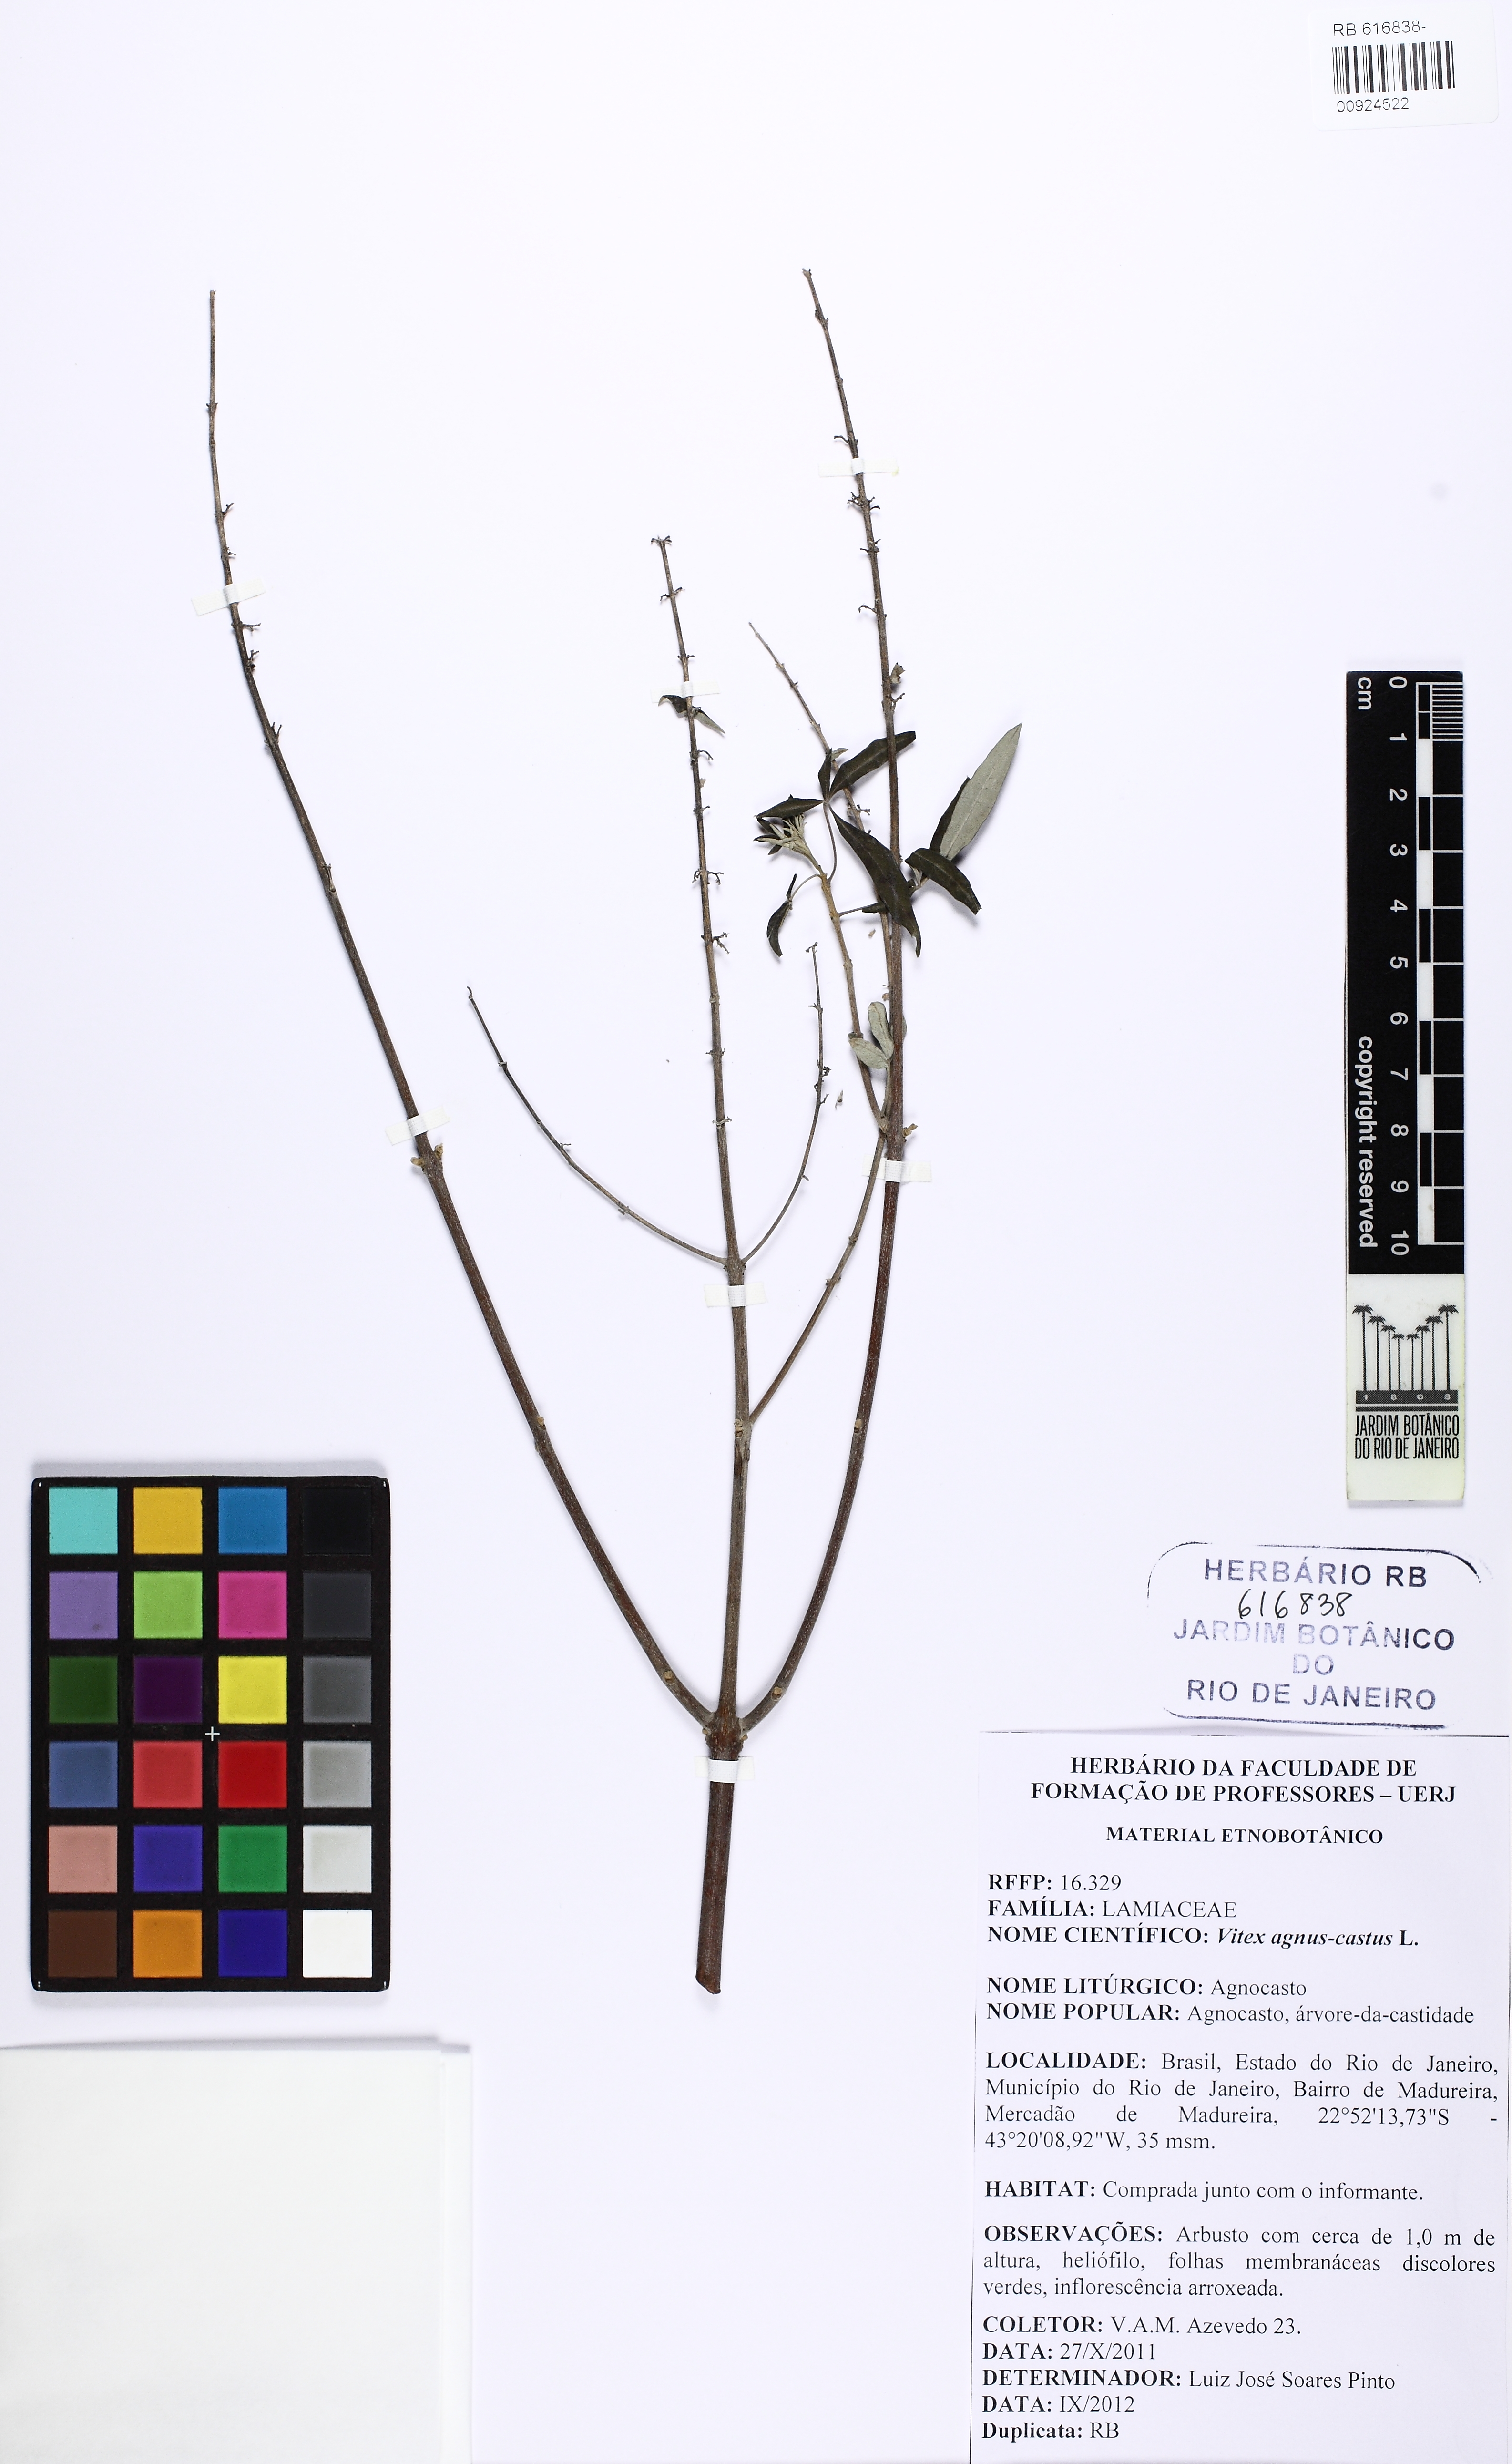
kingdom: Plantae
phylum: Tracheophyta
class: Magnoliopsida
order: Lamiales
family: Lamiaceae
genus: Vitex
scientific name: Vitex agnus-castus
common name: Chasteberry
